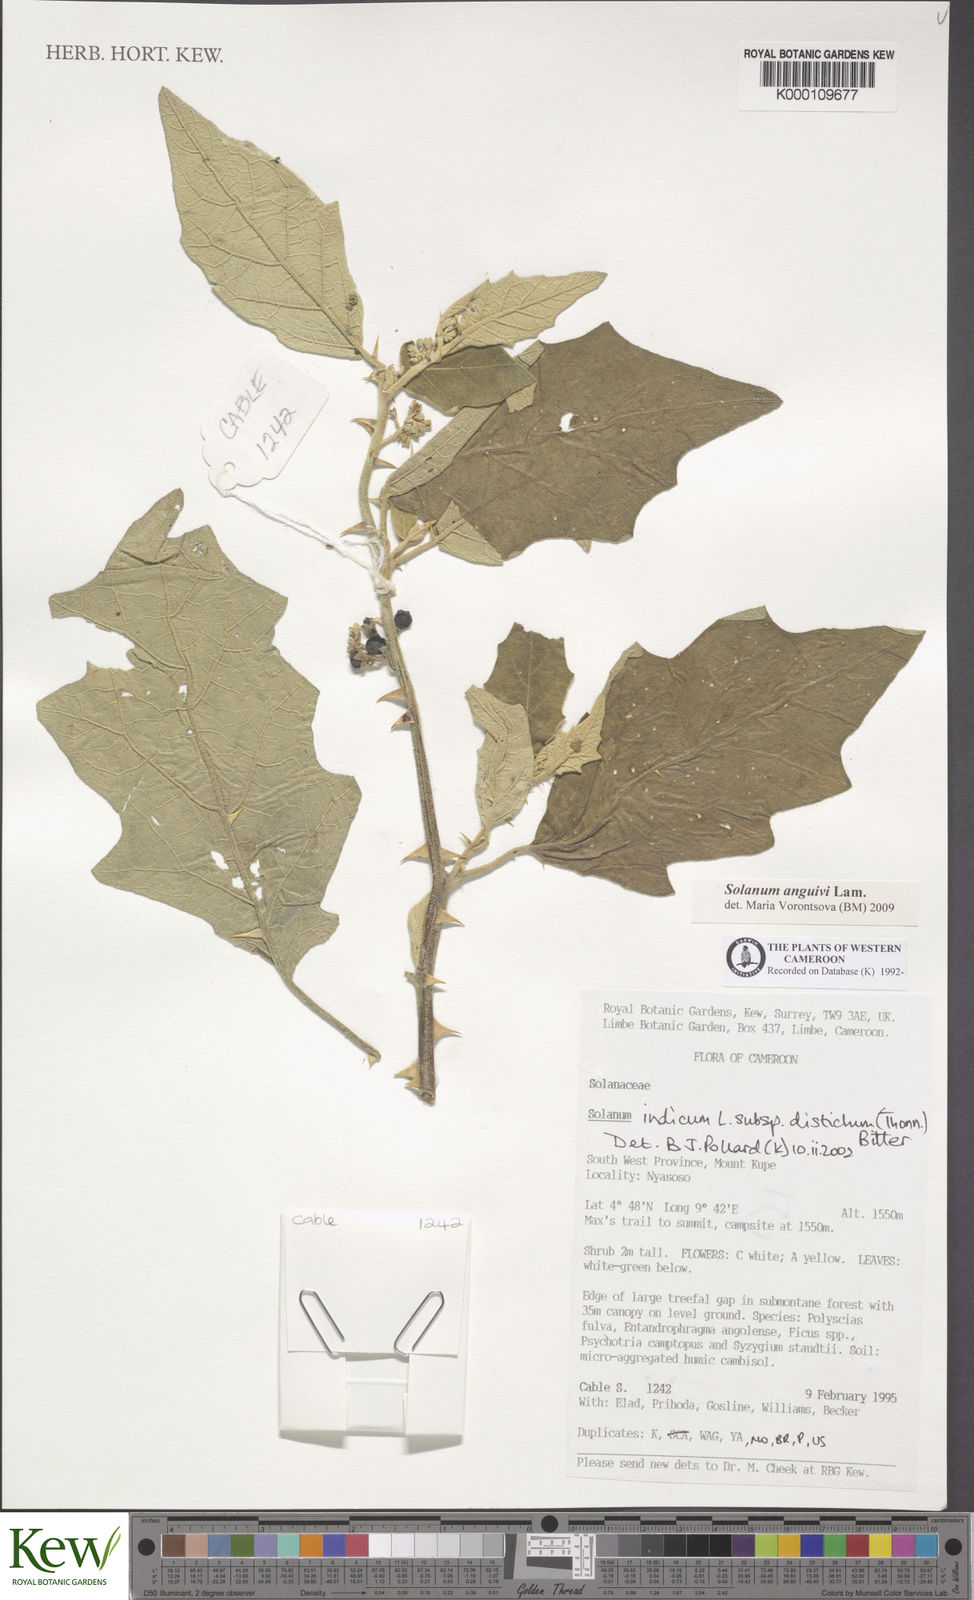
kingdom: Plantae
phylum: Tracheophyta
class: Magnoliopsida
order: Solanales
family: Solanaceae
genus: Solanum
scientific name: Solanum anguivi
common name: Forest bitterberry
